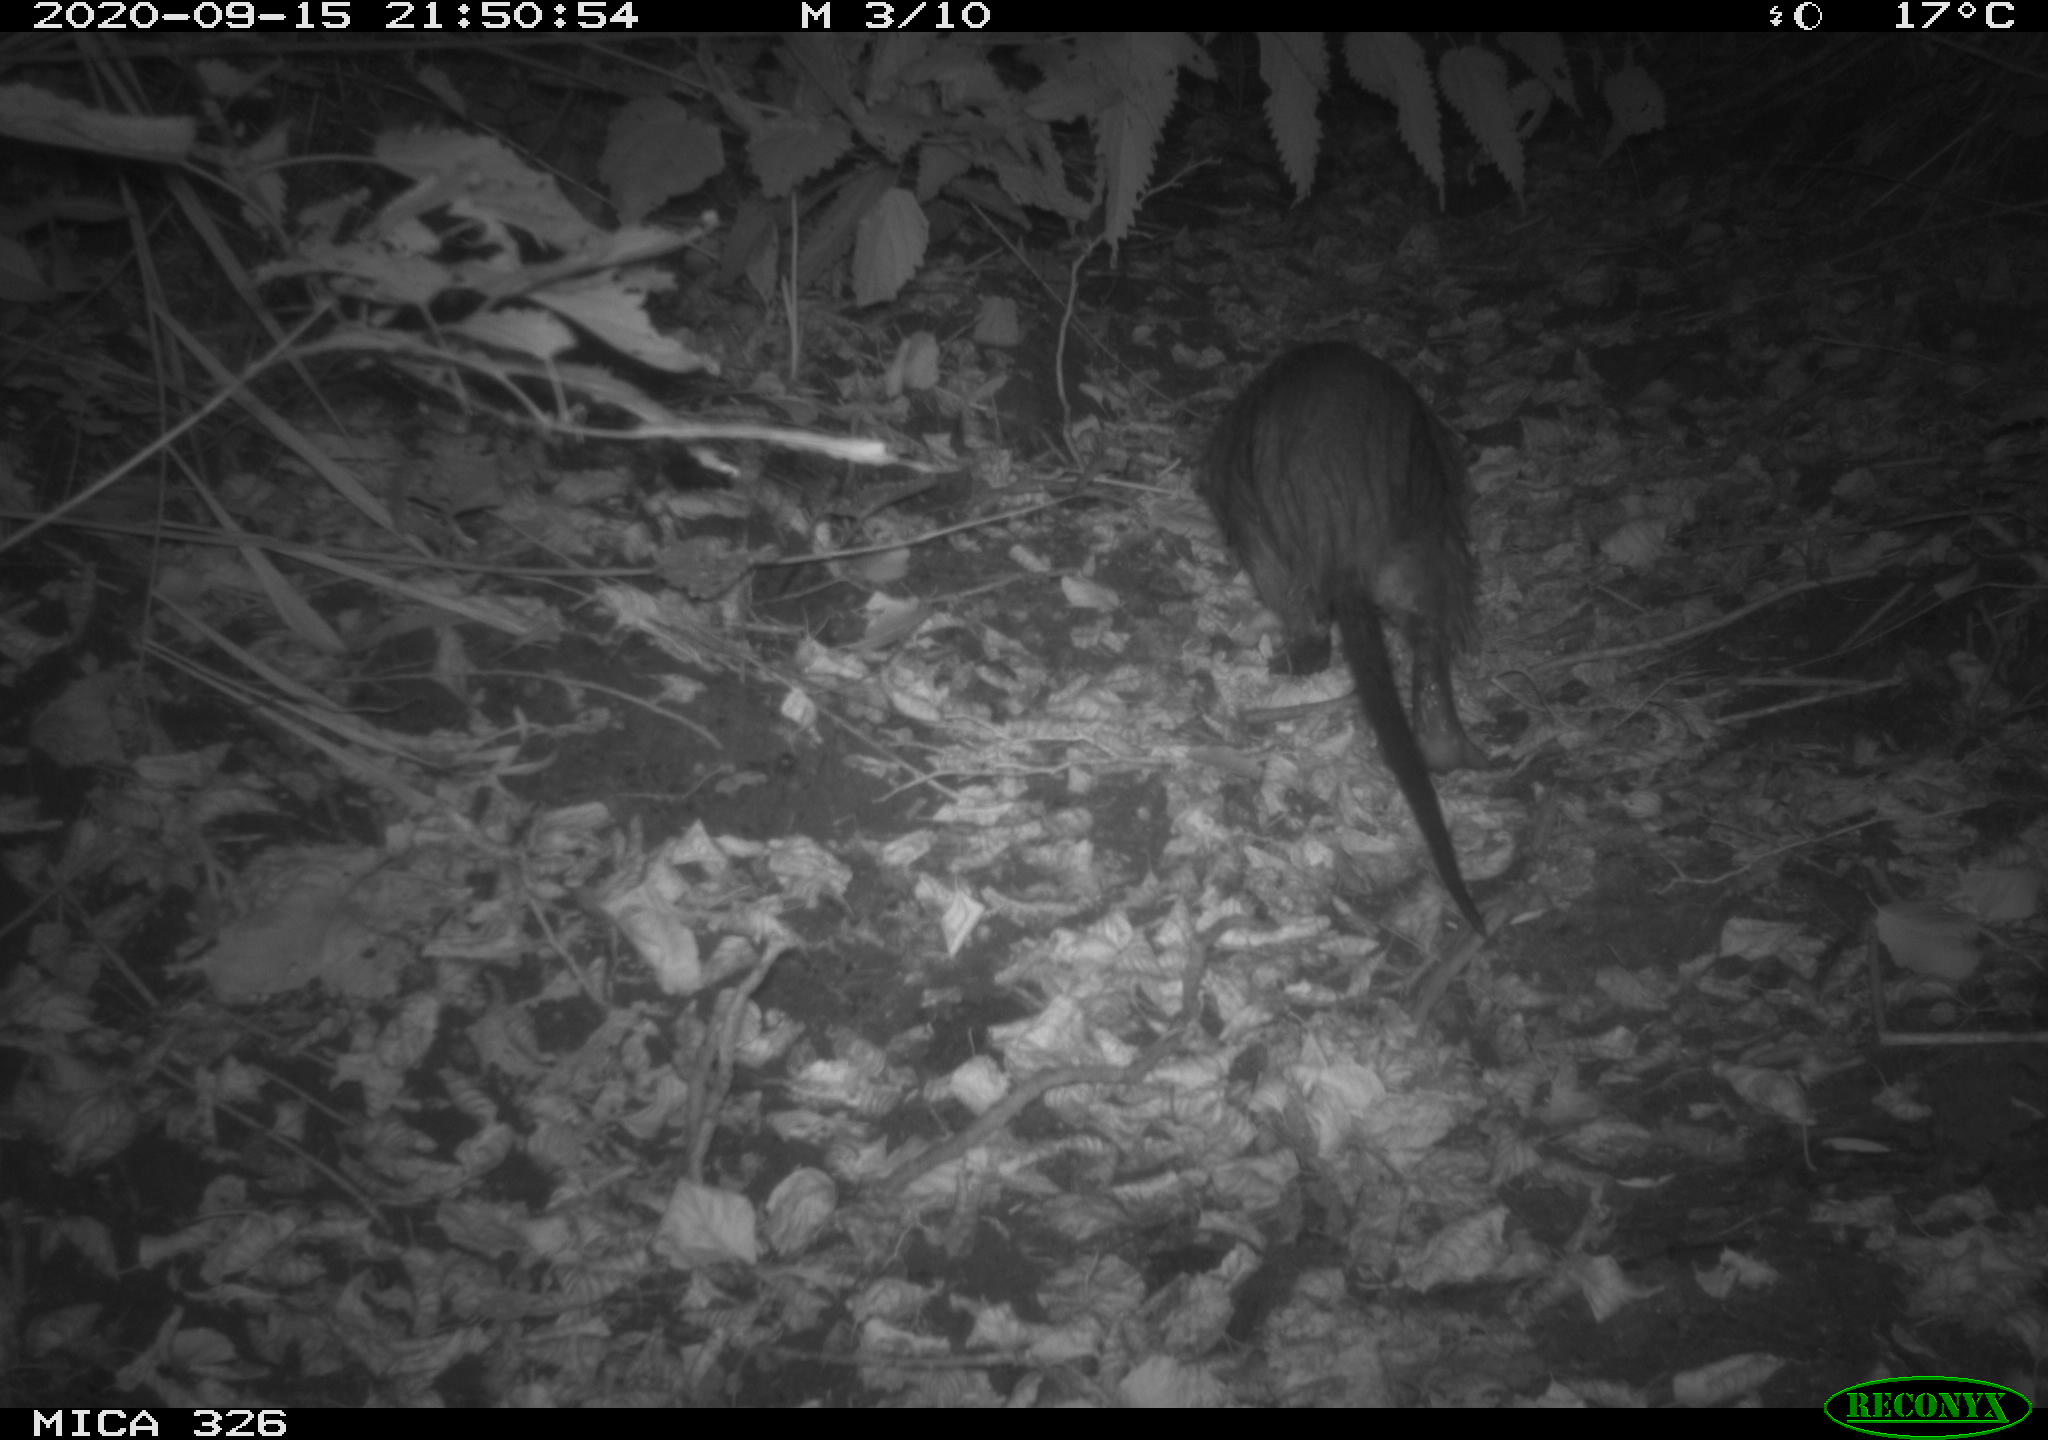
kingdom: Animalia
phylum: Chordata
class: Mammalia
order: Rodentia
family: Myocastoridae
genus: Myocastor
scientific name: Myocastor coypus
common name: Coypu
